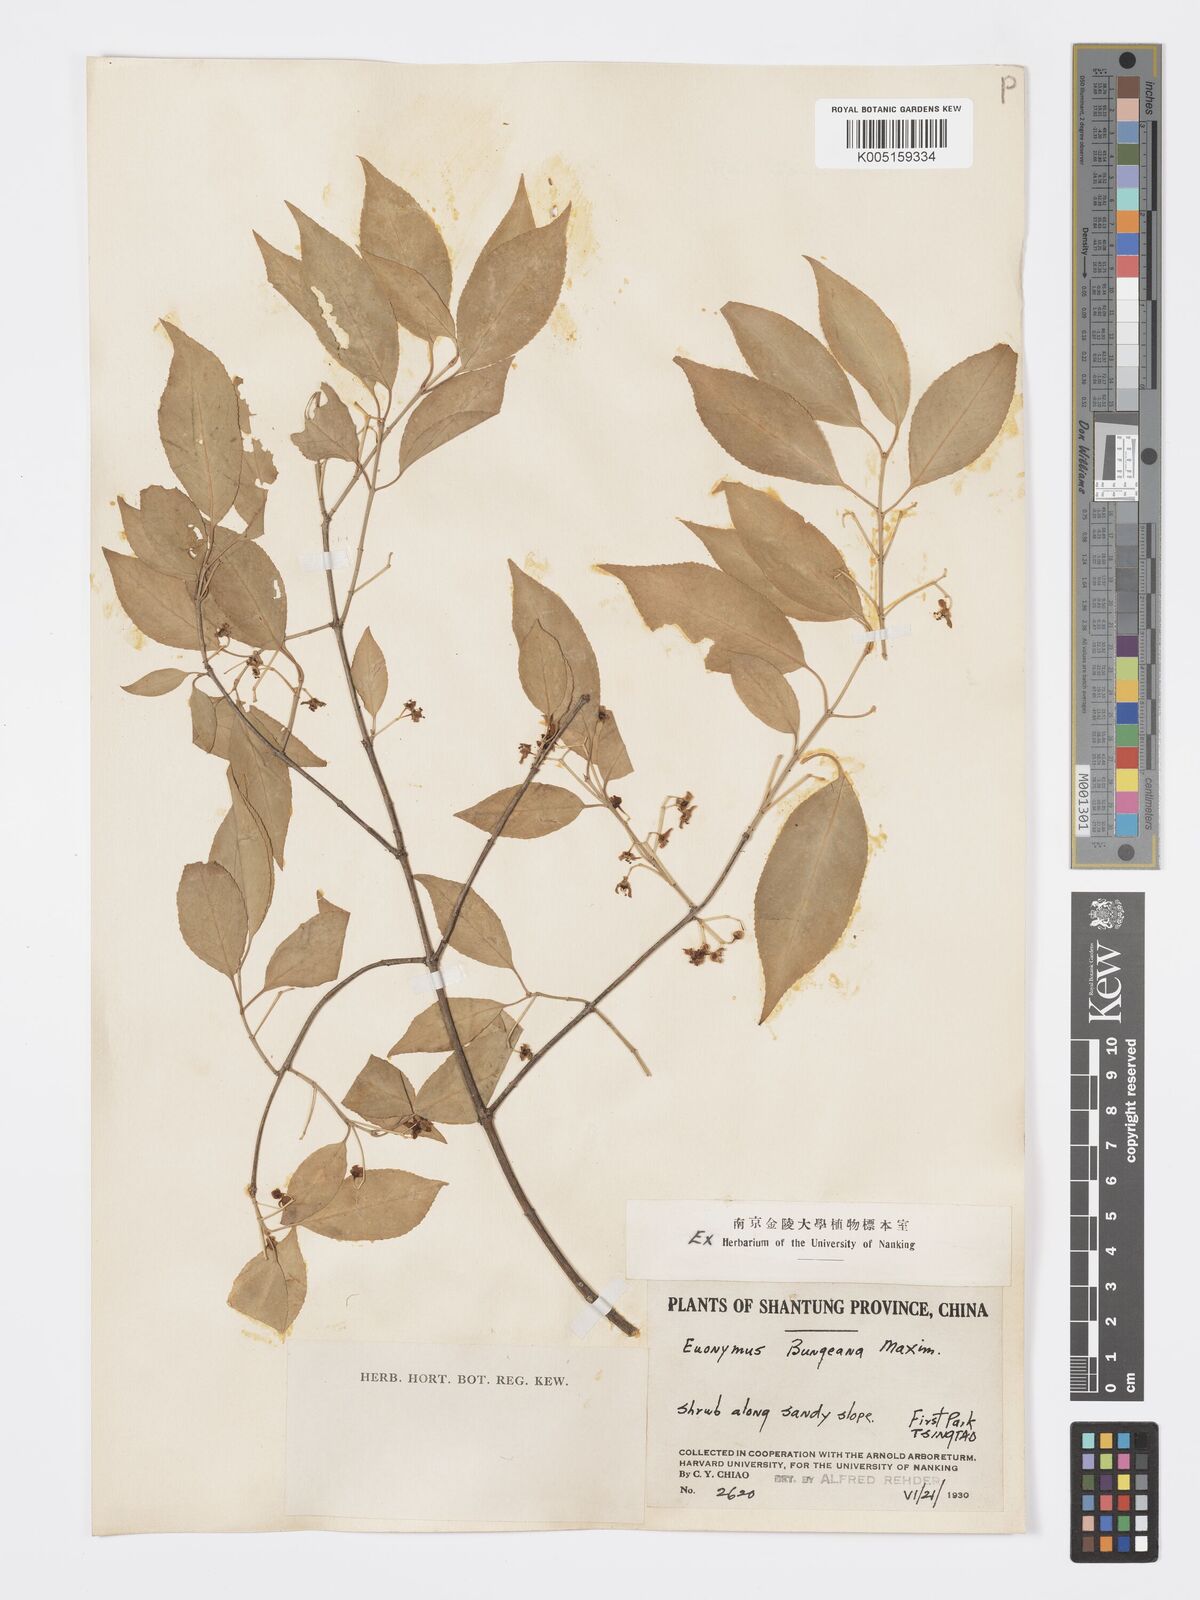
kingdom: Plantae
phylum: Tracheophyta
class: Magnoliopsida
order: Celastrales
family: Celastraceae
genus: Euonymus
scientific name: Euonymus maackii
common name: Hamilton's spindletree
